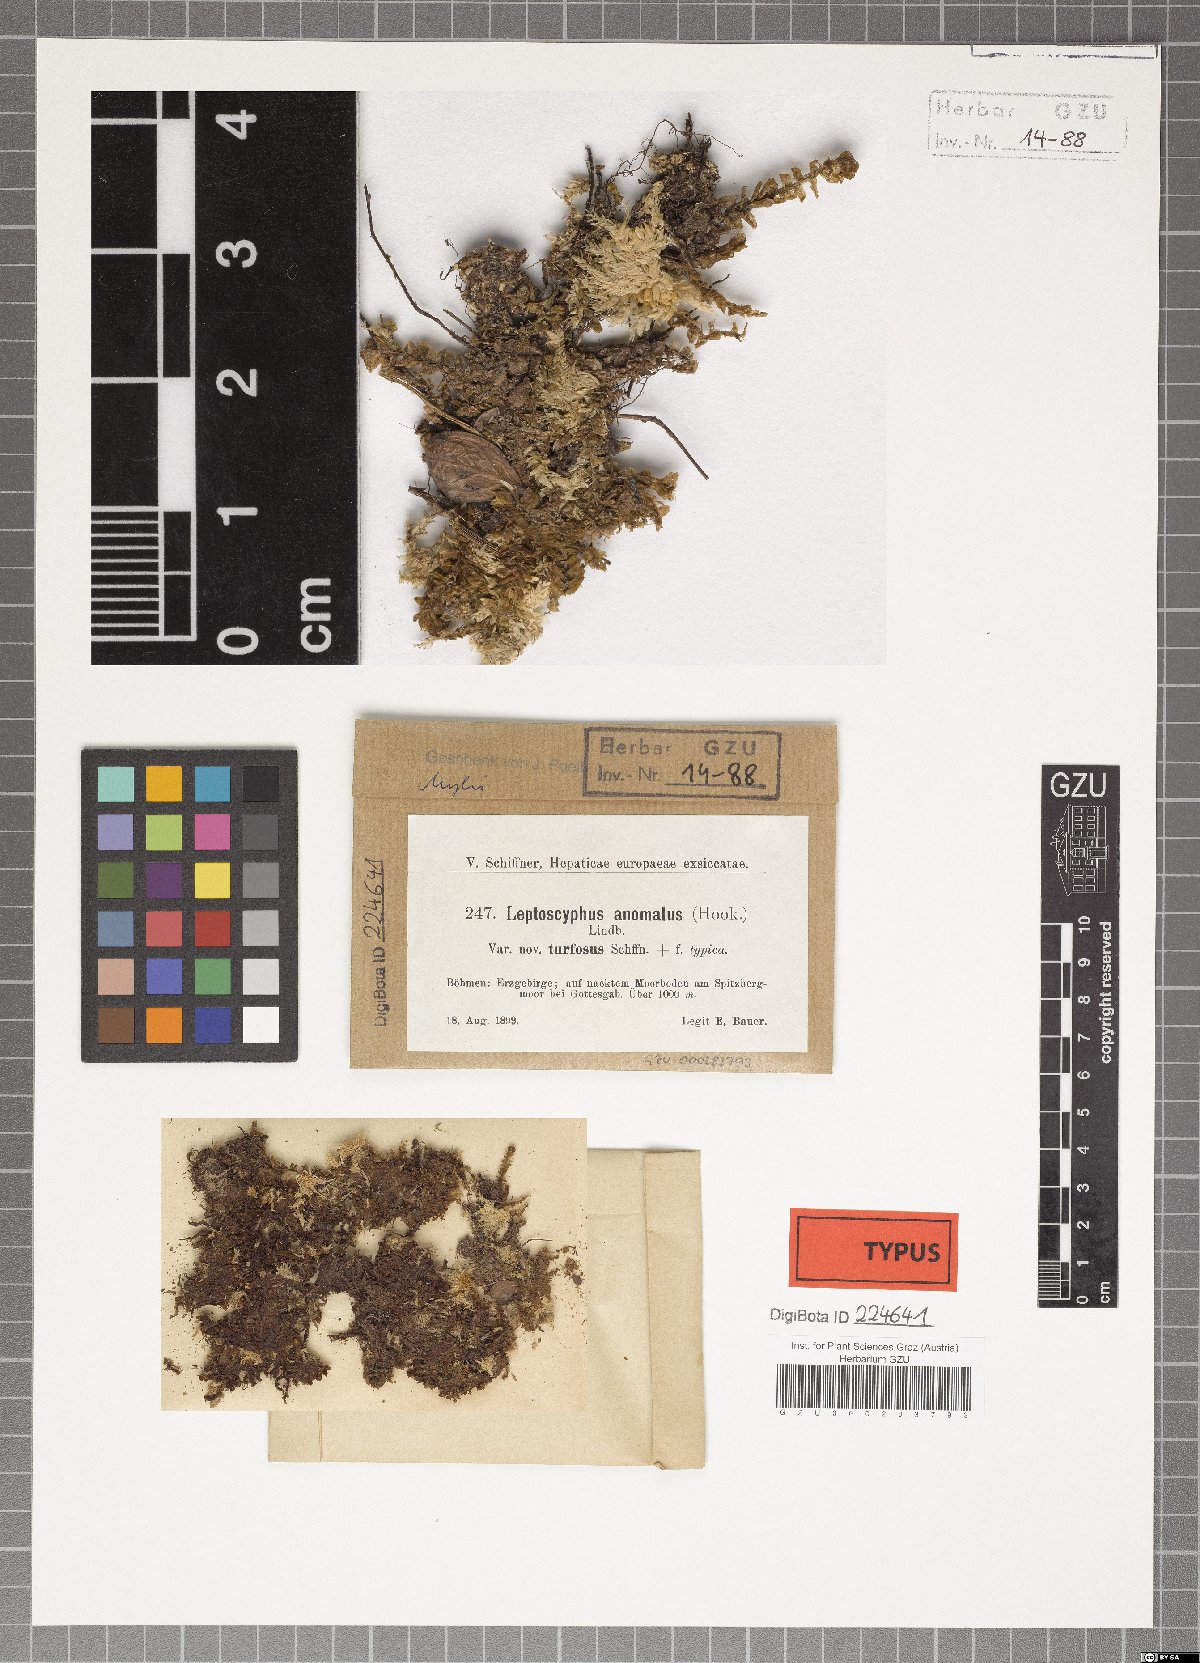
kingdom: Plantae
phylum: Marchantiophyta
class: Jungermanniopsida
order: Jungermanniales
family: Myliaceae
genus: Mylia
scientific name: Mylia anomala
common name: Anomalous flapwort
